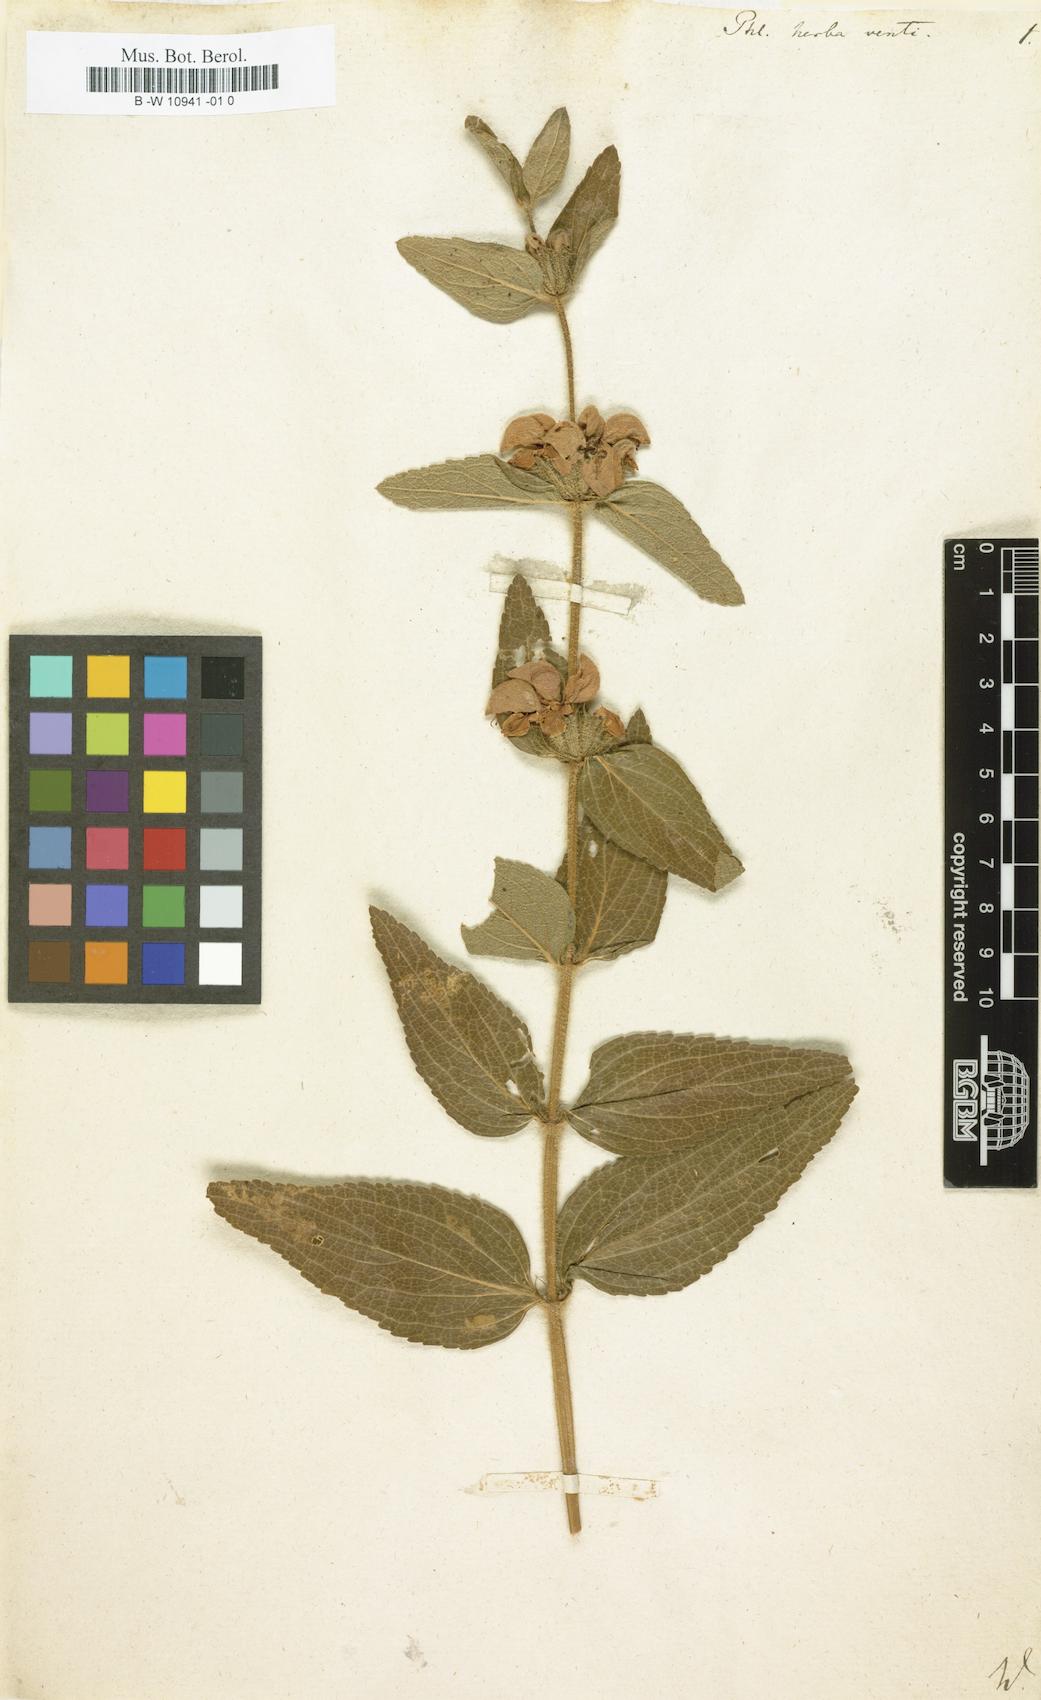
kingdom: Plantae
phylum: Tracheophyta
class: Magnoliopsida
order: Lamiales
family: Lamiaceae
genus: Phlomis
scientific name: Phlomis herba-venti
